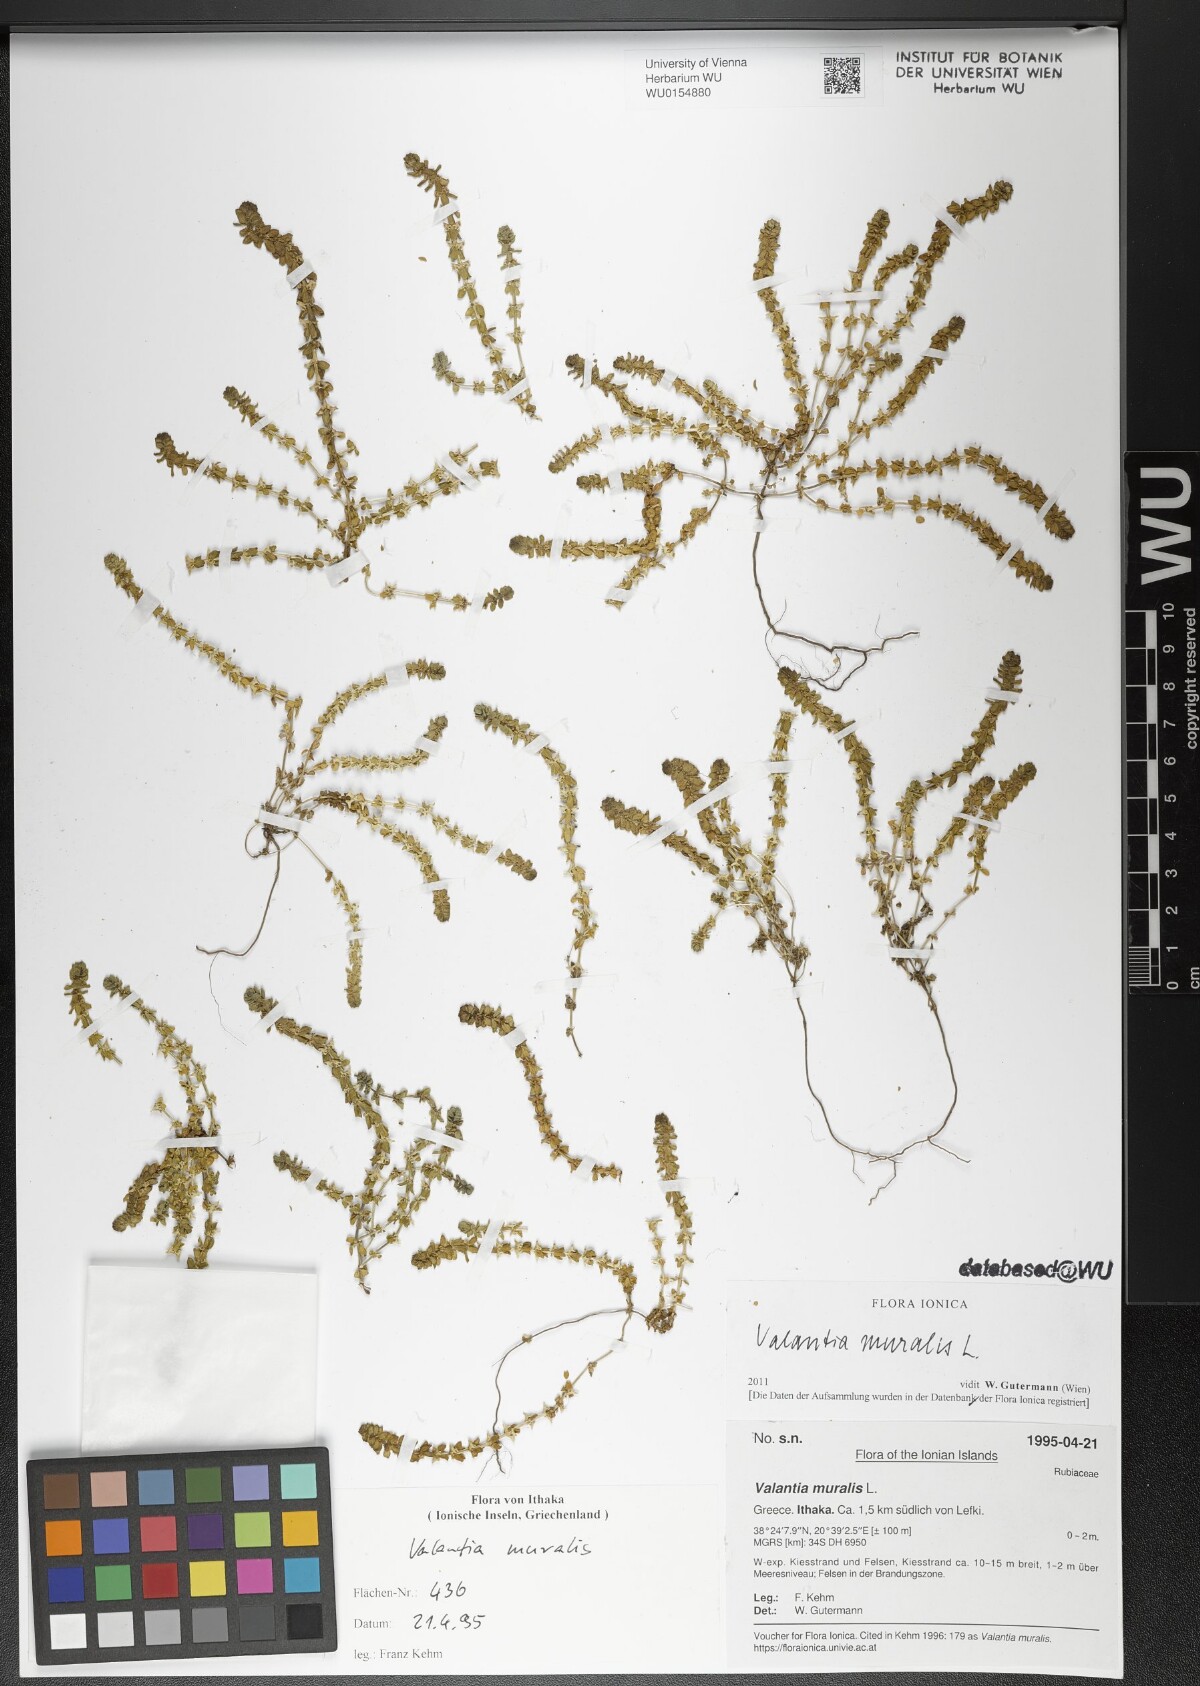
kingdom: Plantae
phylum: Tracheophyta
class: Magnoliopsida
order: Gentianales
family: Rubiaceae
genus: Valantia
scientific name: Valantia muralis
